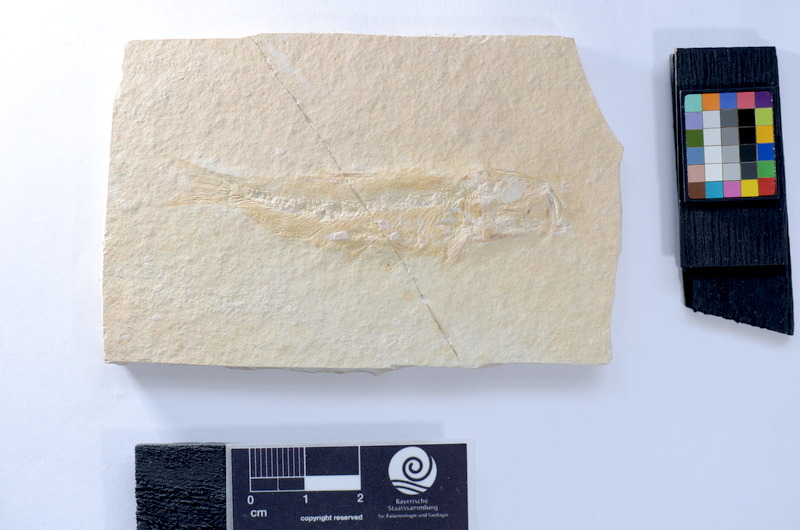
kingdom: Animalia
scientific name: Animalia
